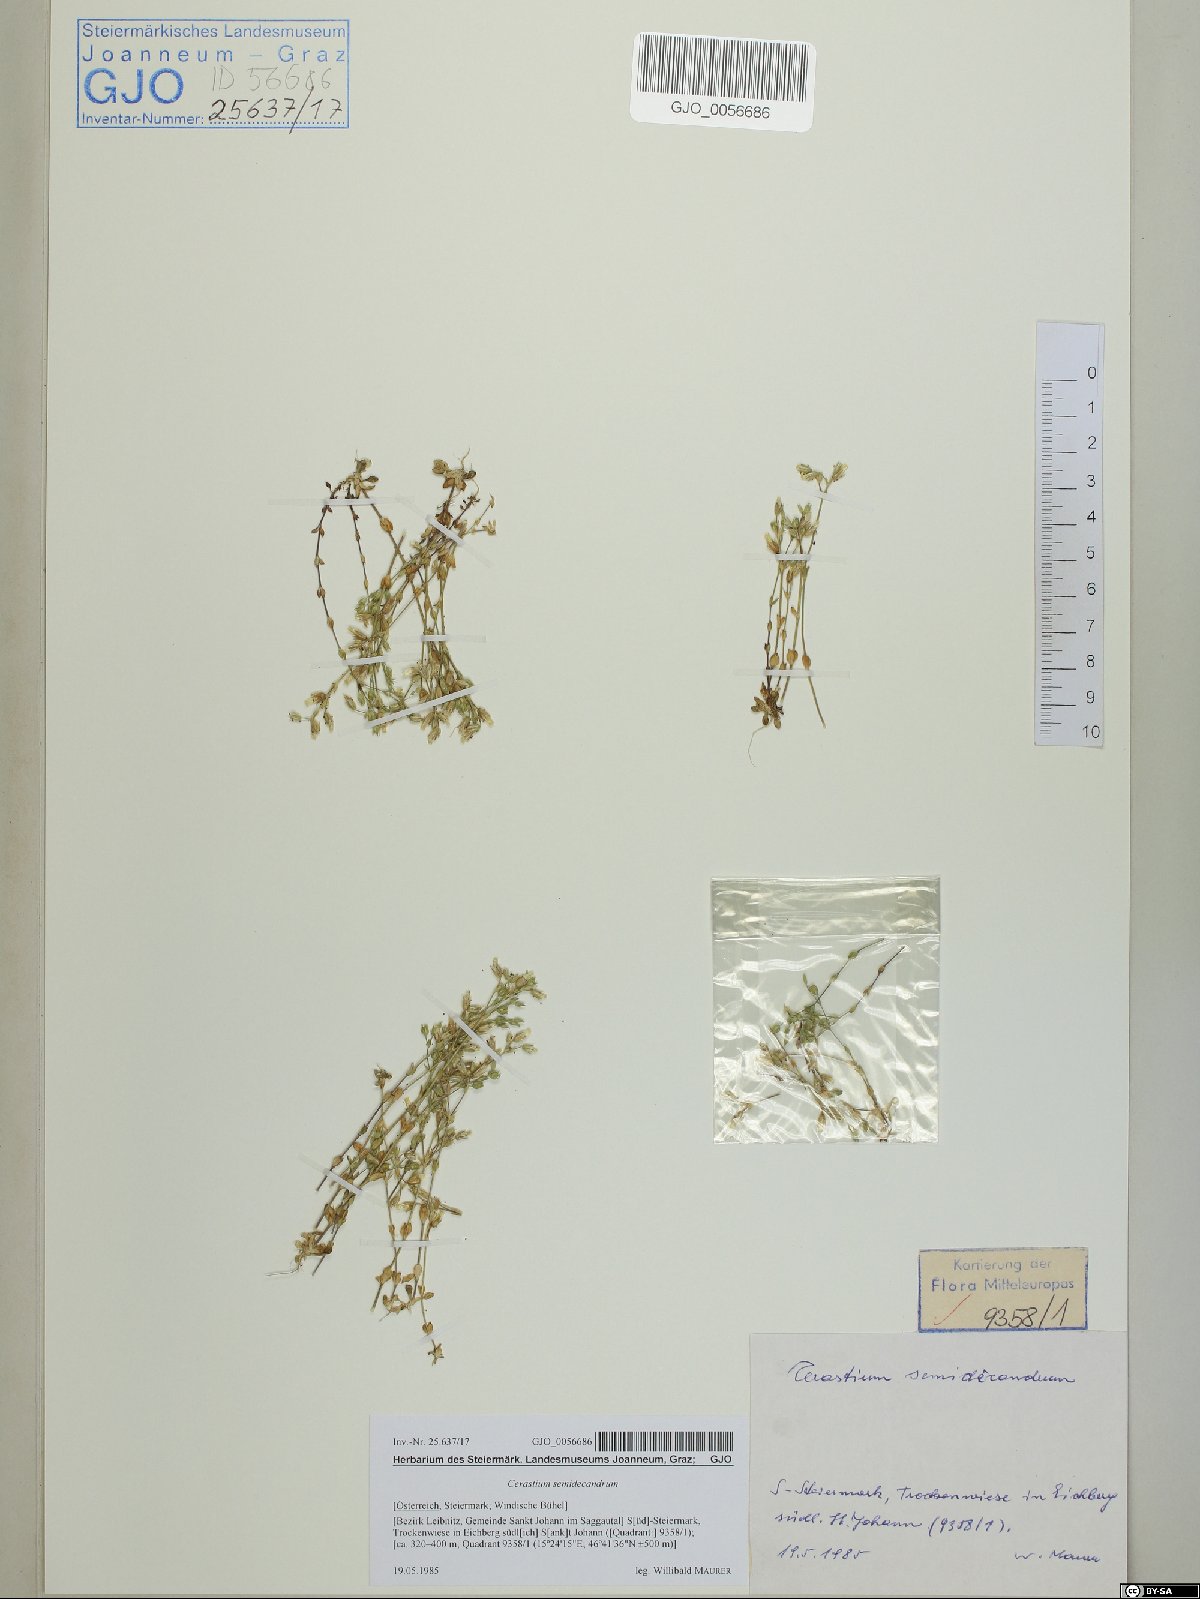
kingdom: Plantae
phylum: Tracheophyta
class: Magnoliopsida
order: Caryophyllales
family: Caryophyllaceae
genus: Cerastium
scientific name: Cerastium semidecandrum
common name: Little mouse-ear
